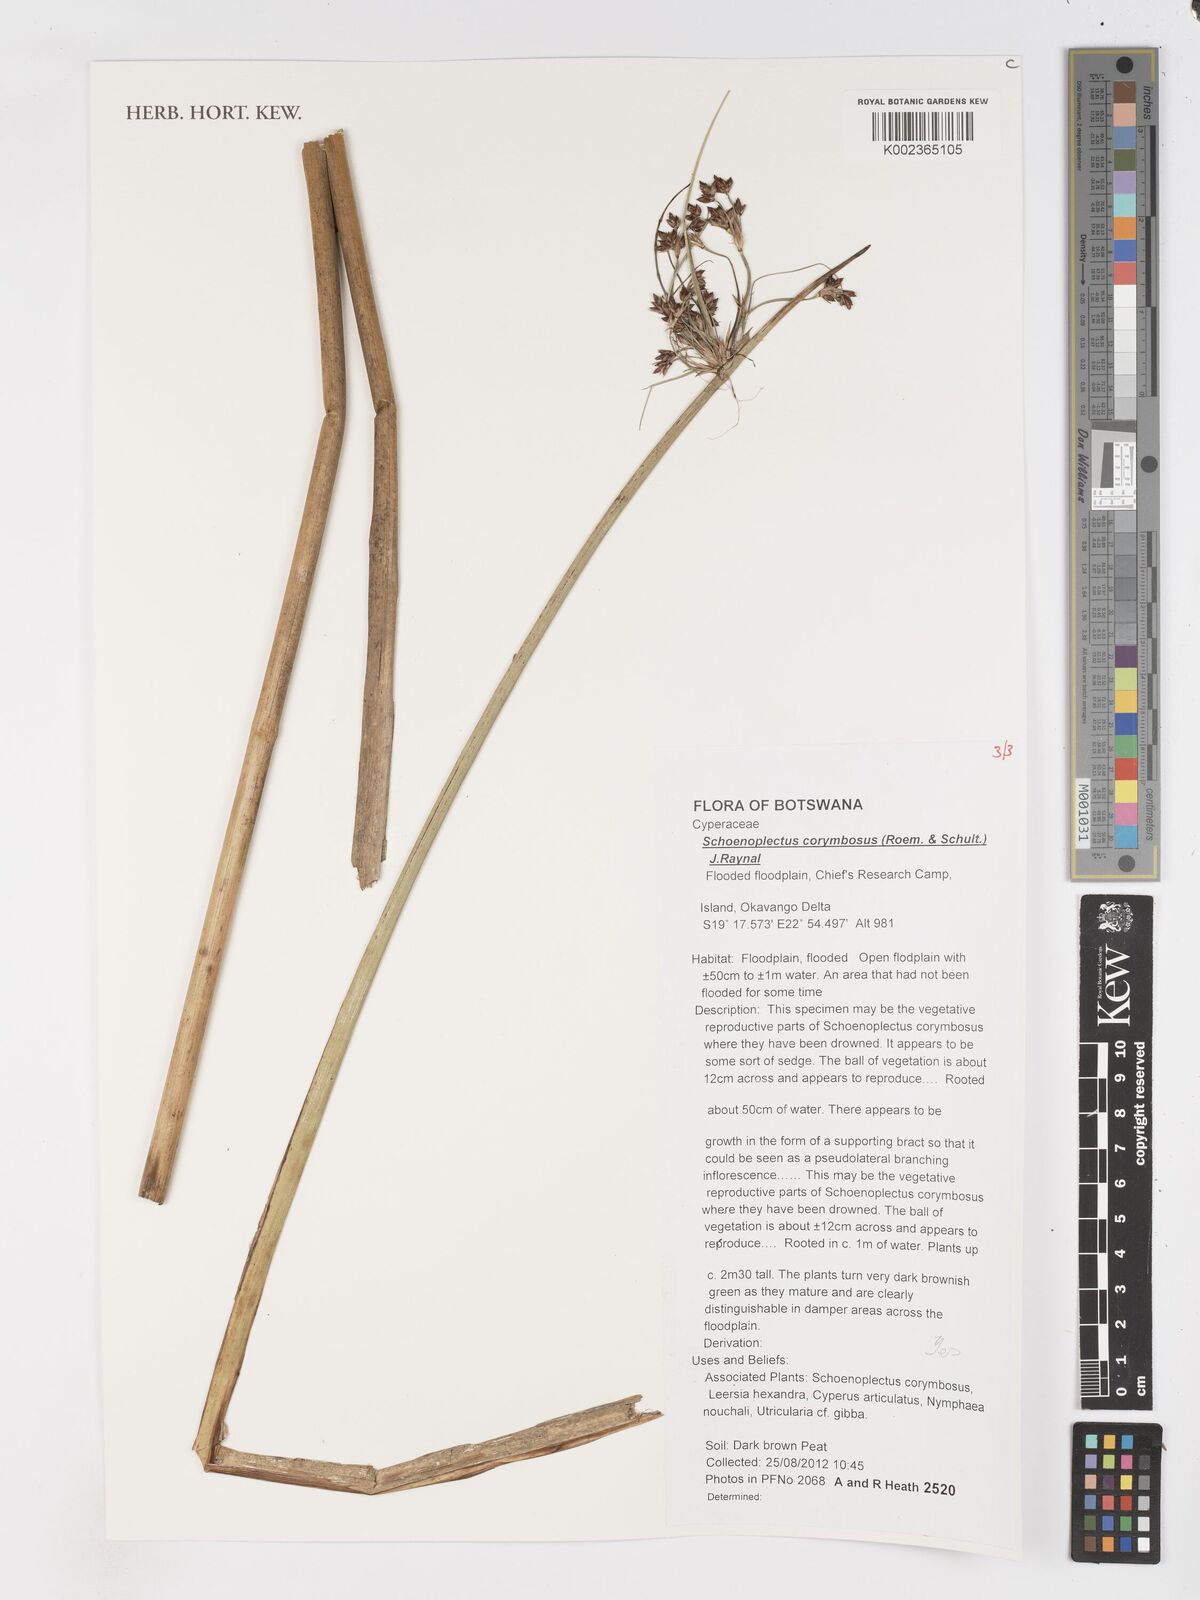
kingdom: Plantae
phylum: Tracheophyta
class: Liliopsida
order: Poales
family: Cyperaceae
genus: Schoenoplectiella
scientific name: Schoenoplectiella brachyceras
